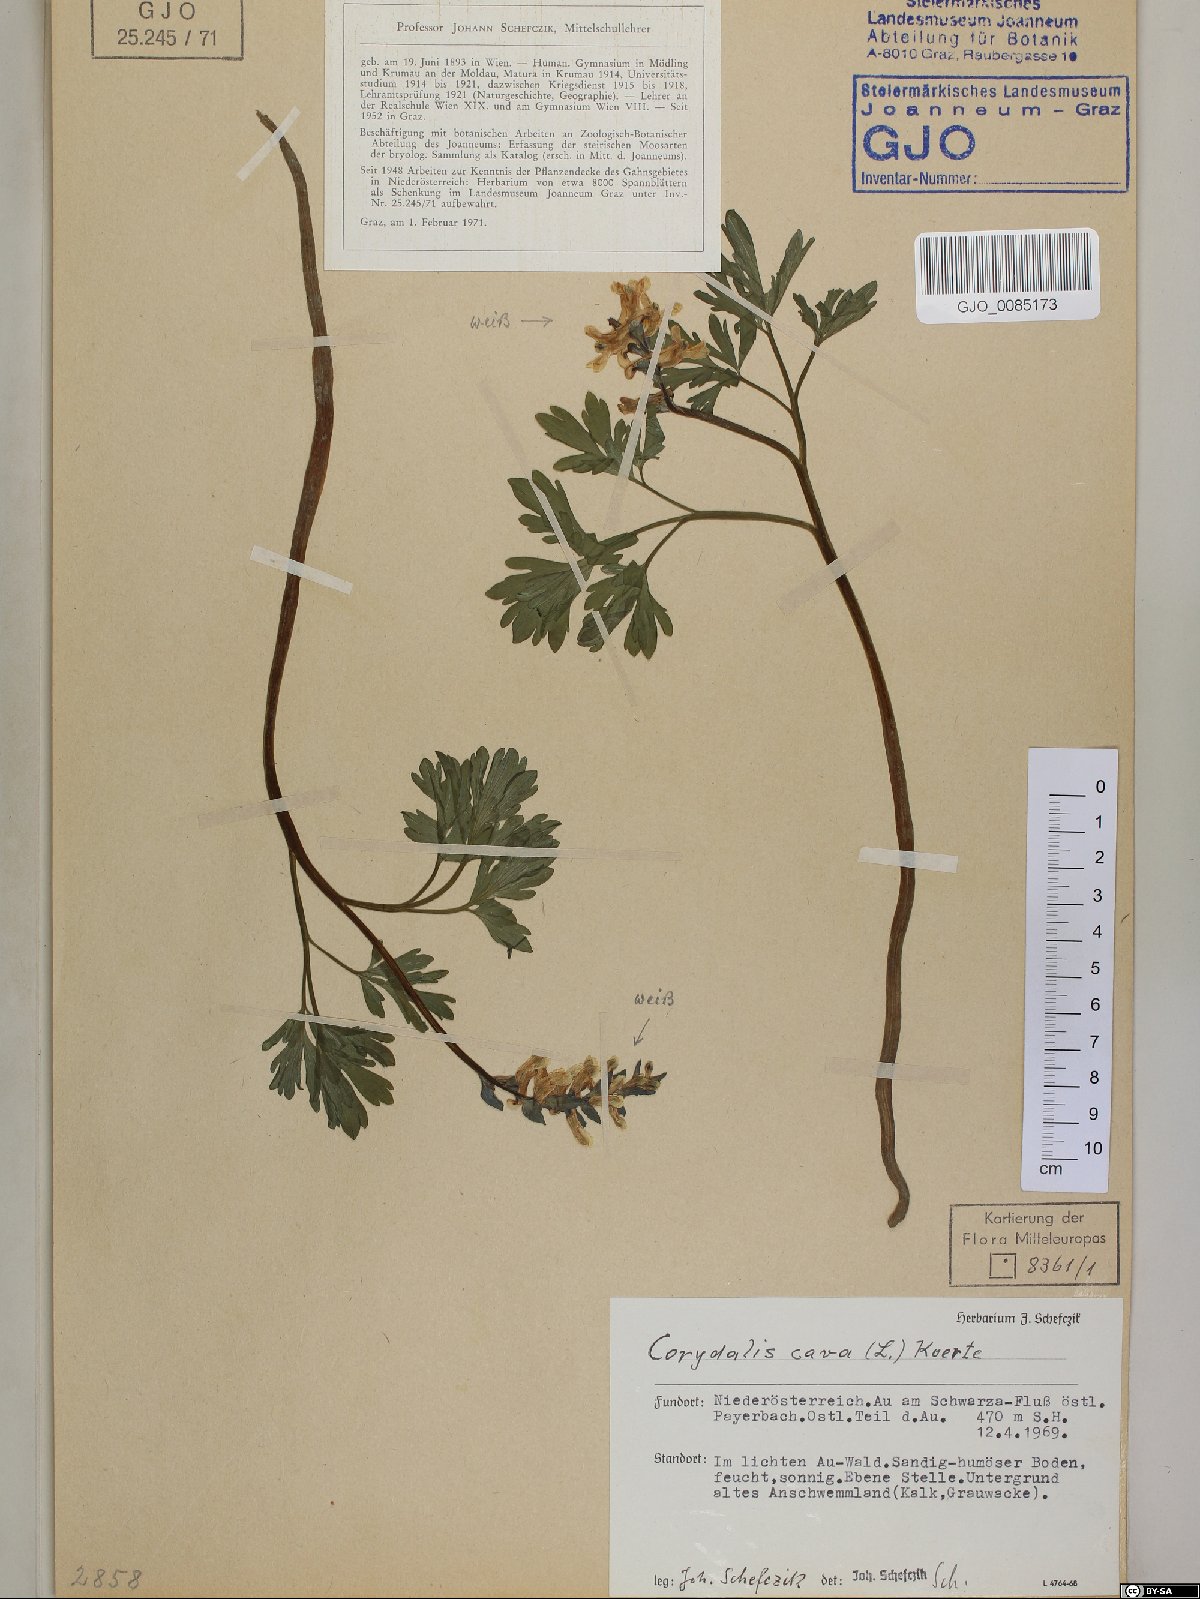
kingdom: Plantae
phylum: Tracheophyta
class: Magnoliopsida
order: Ranunculales
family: Papaveraceae
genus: Corydalis
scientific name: Corydalis cava
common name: Hollowroot
